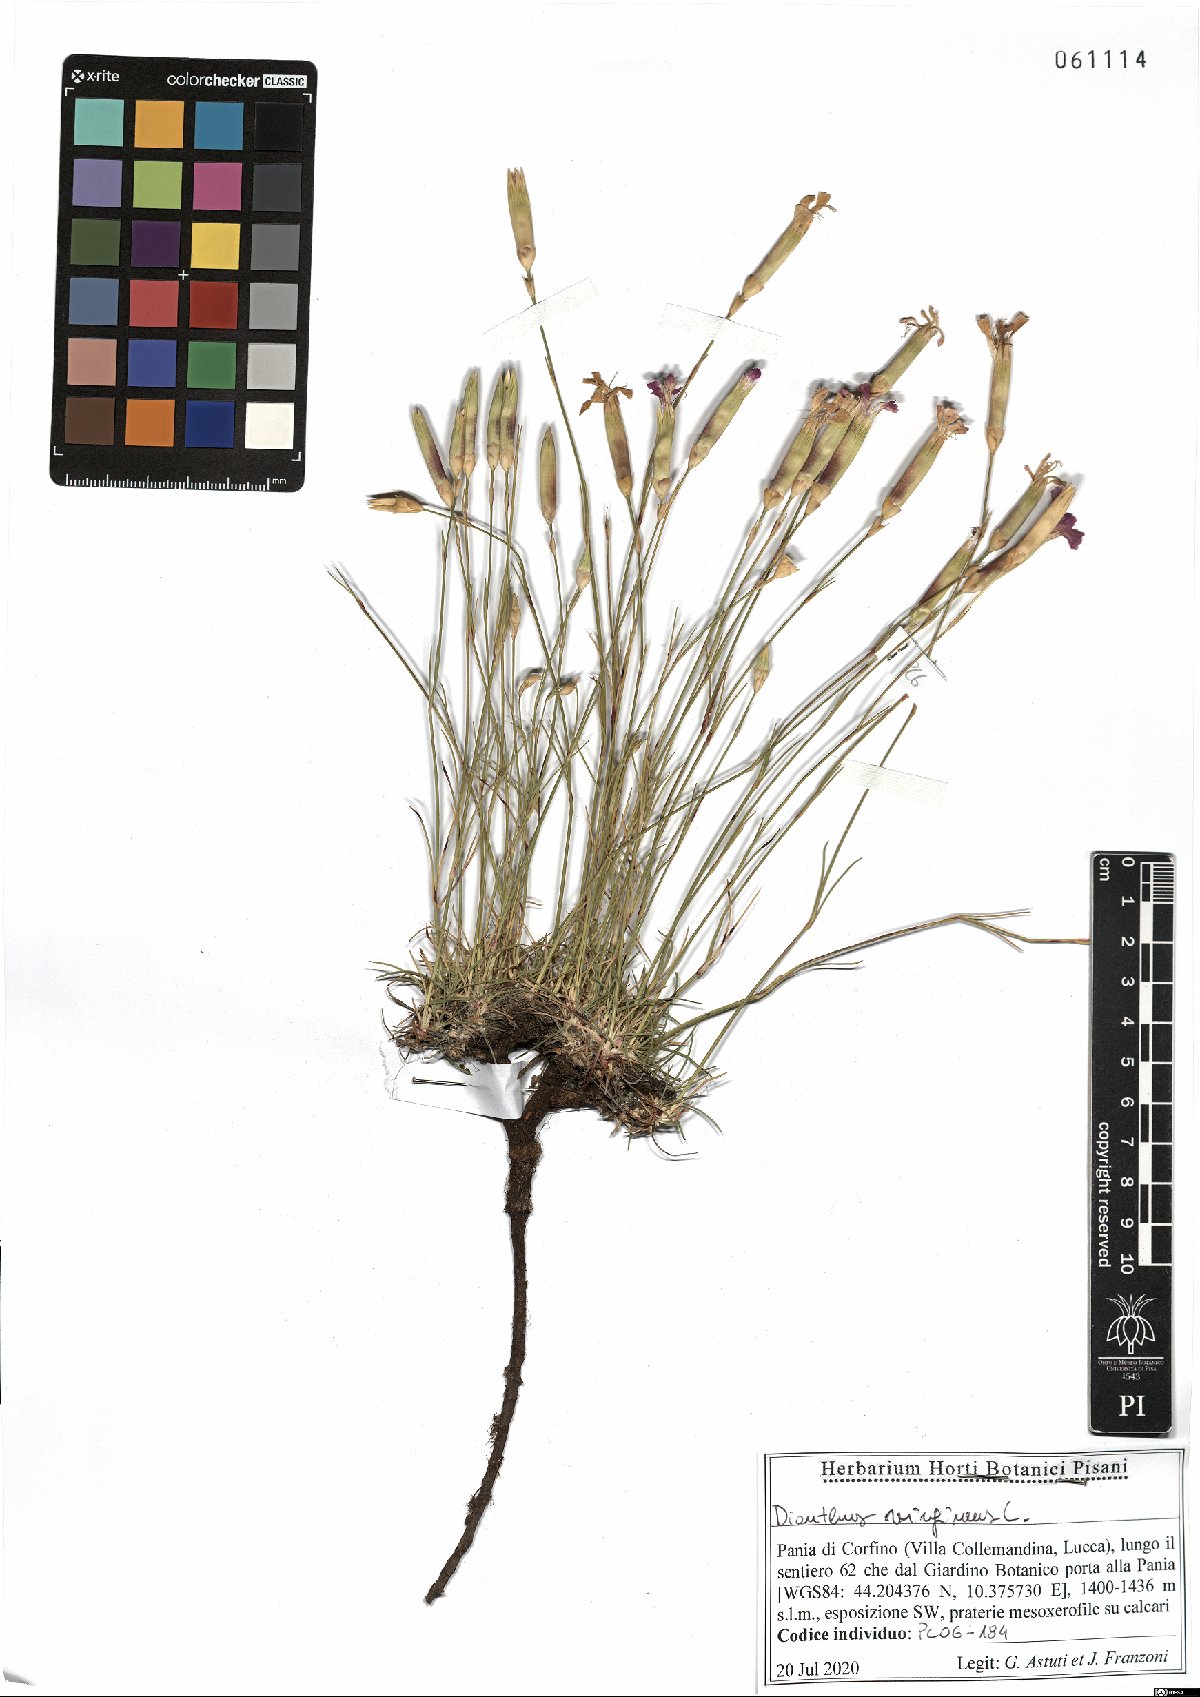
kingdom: Plantae
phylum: Tracheophyta
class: Magnoliopsida
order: Caryophyllales
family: Caryophyllaceae
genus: Dianthus
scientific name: Dianthus virgineus
